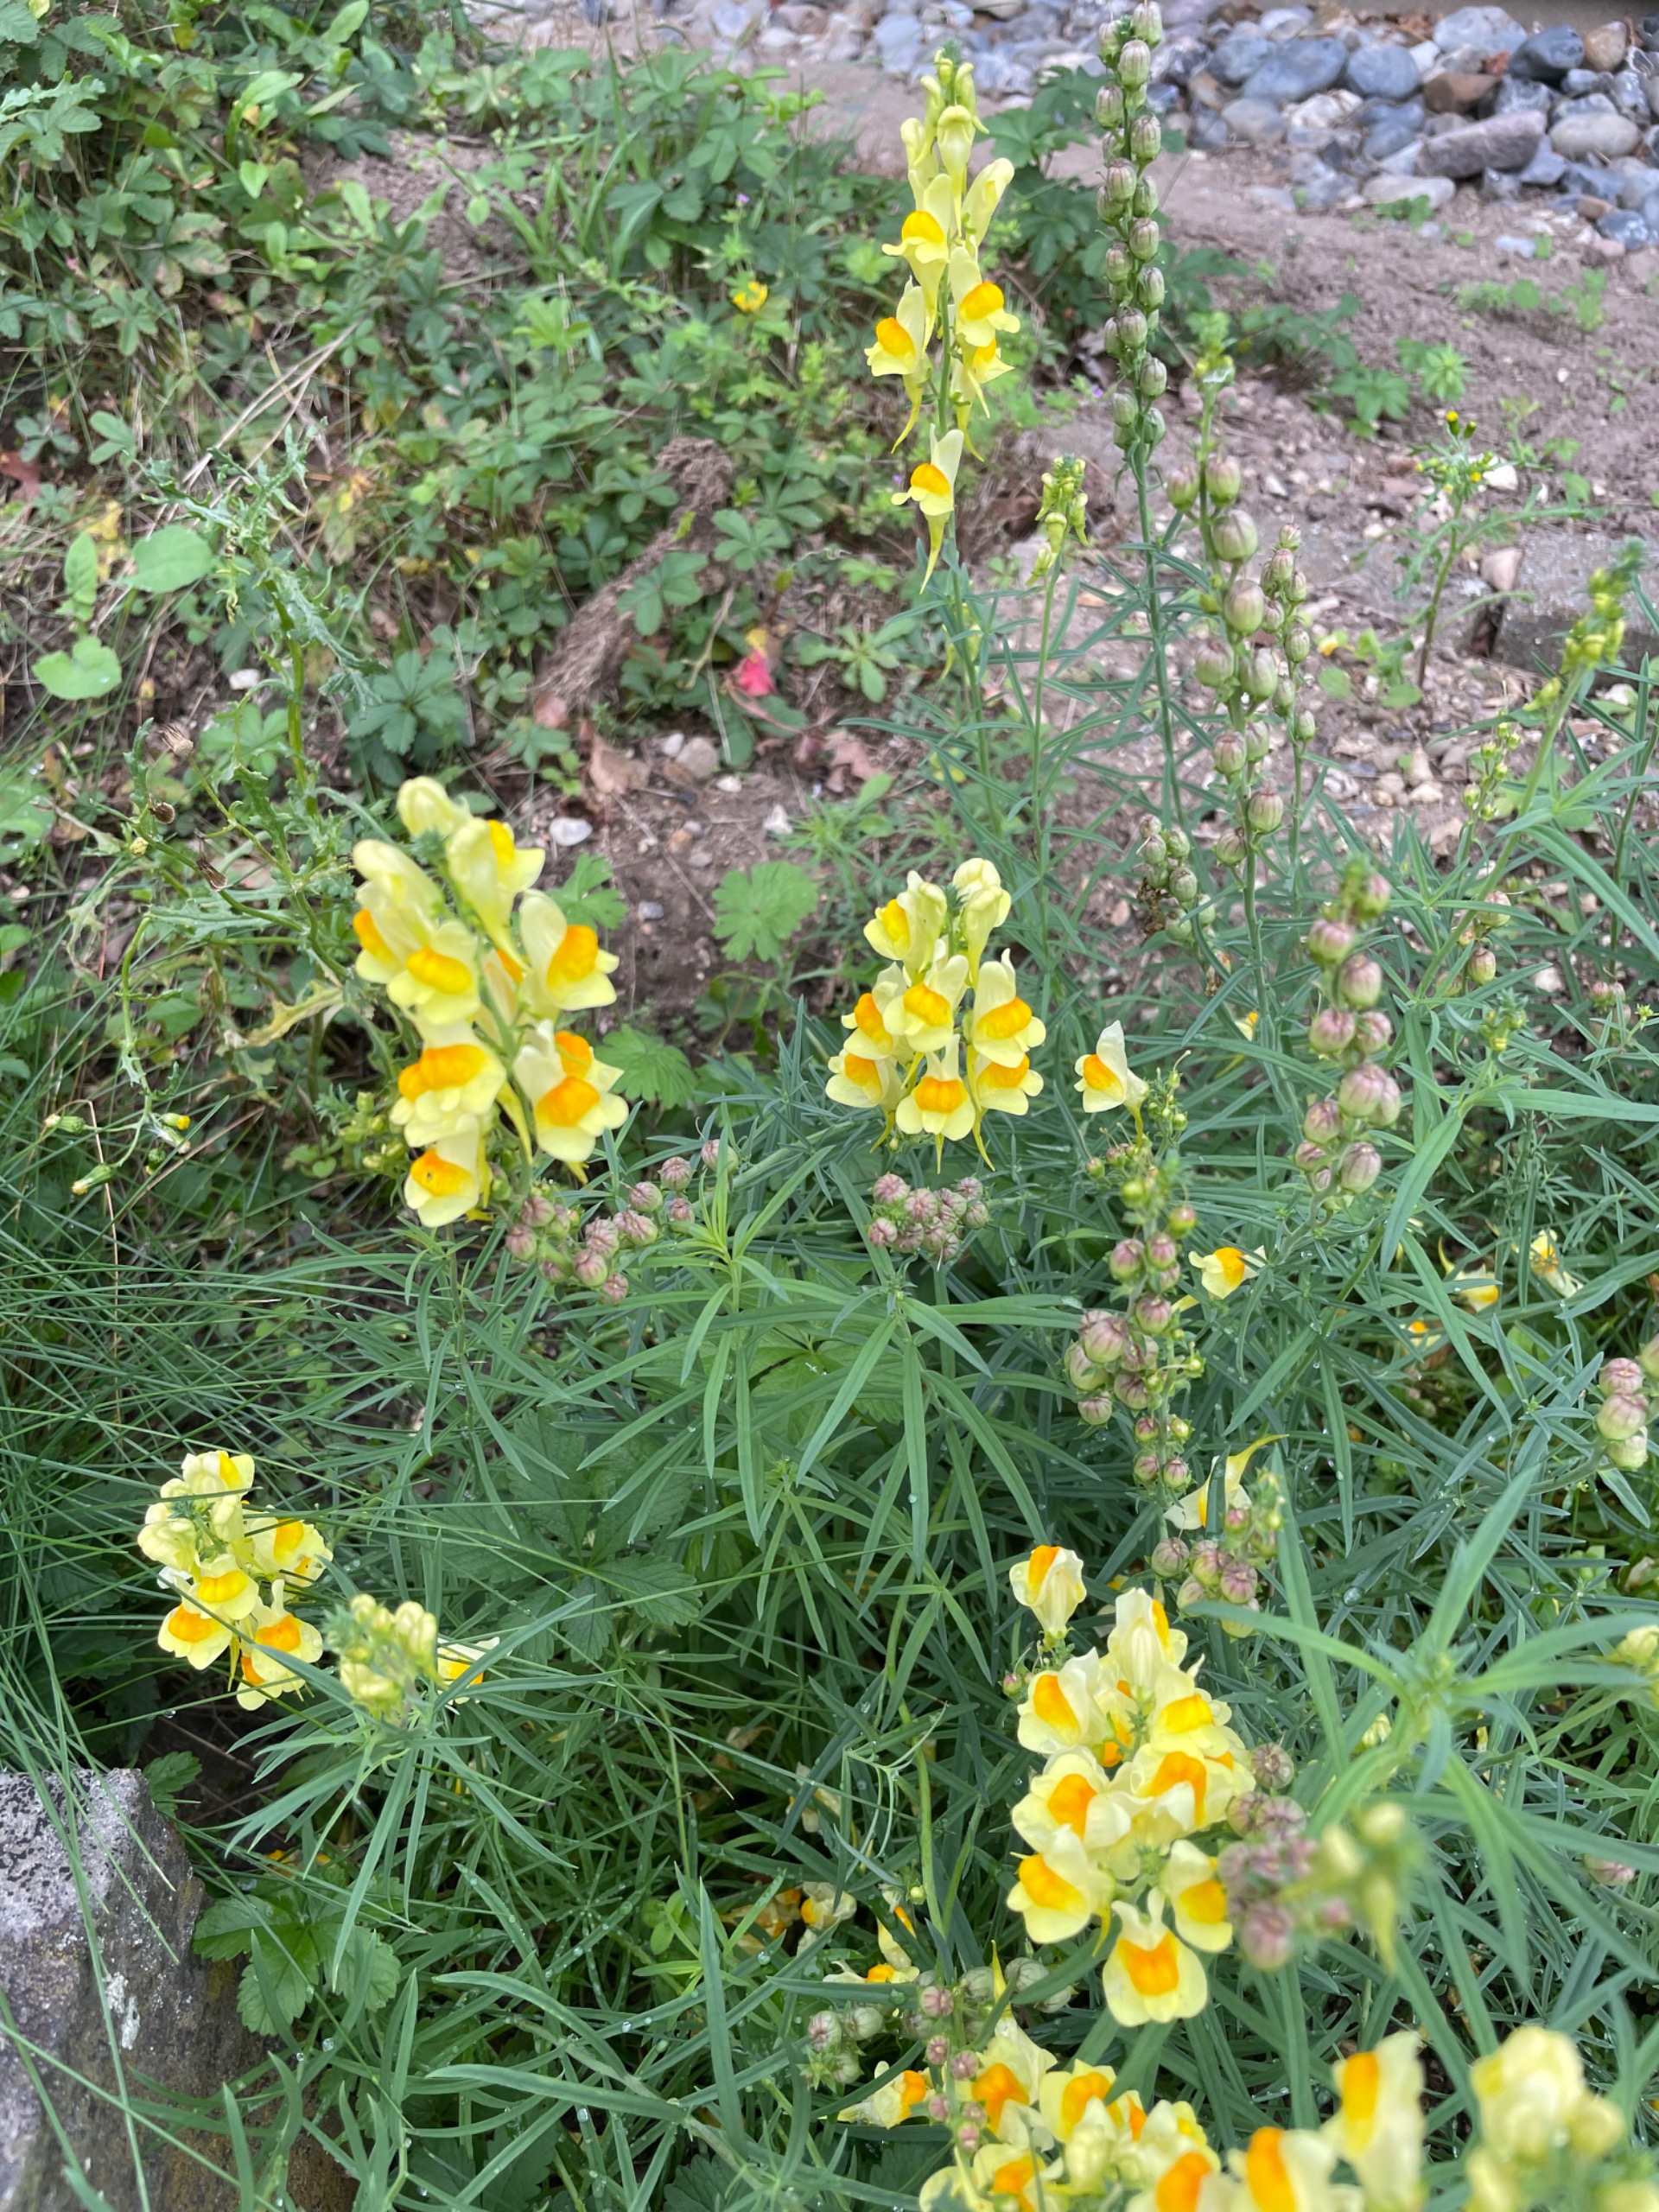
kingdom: Plantae
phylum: Tracheophyta
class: Magnoliopsida
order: Lamiales
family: Plantaginaceae
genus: Linaria
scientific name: Linaria vulgaris
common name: Almindelig torskemund
